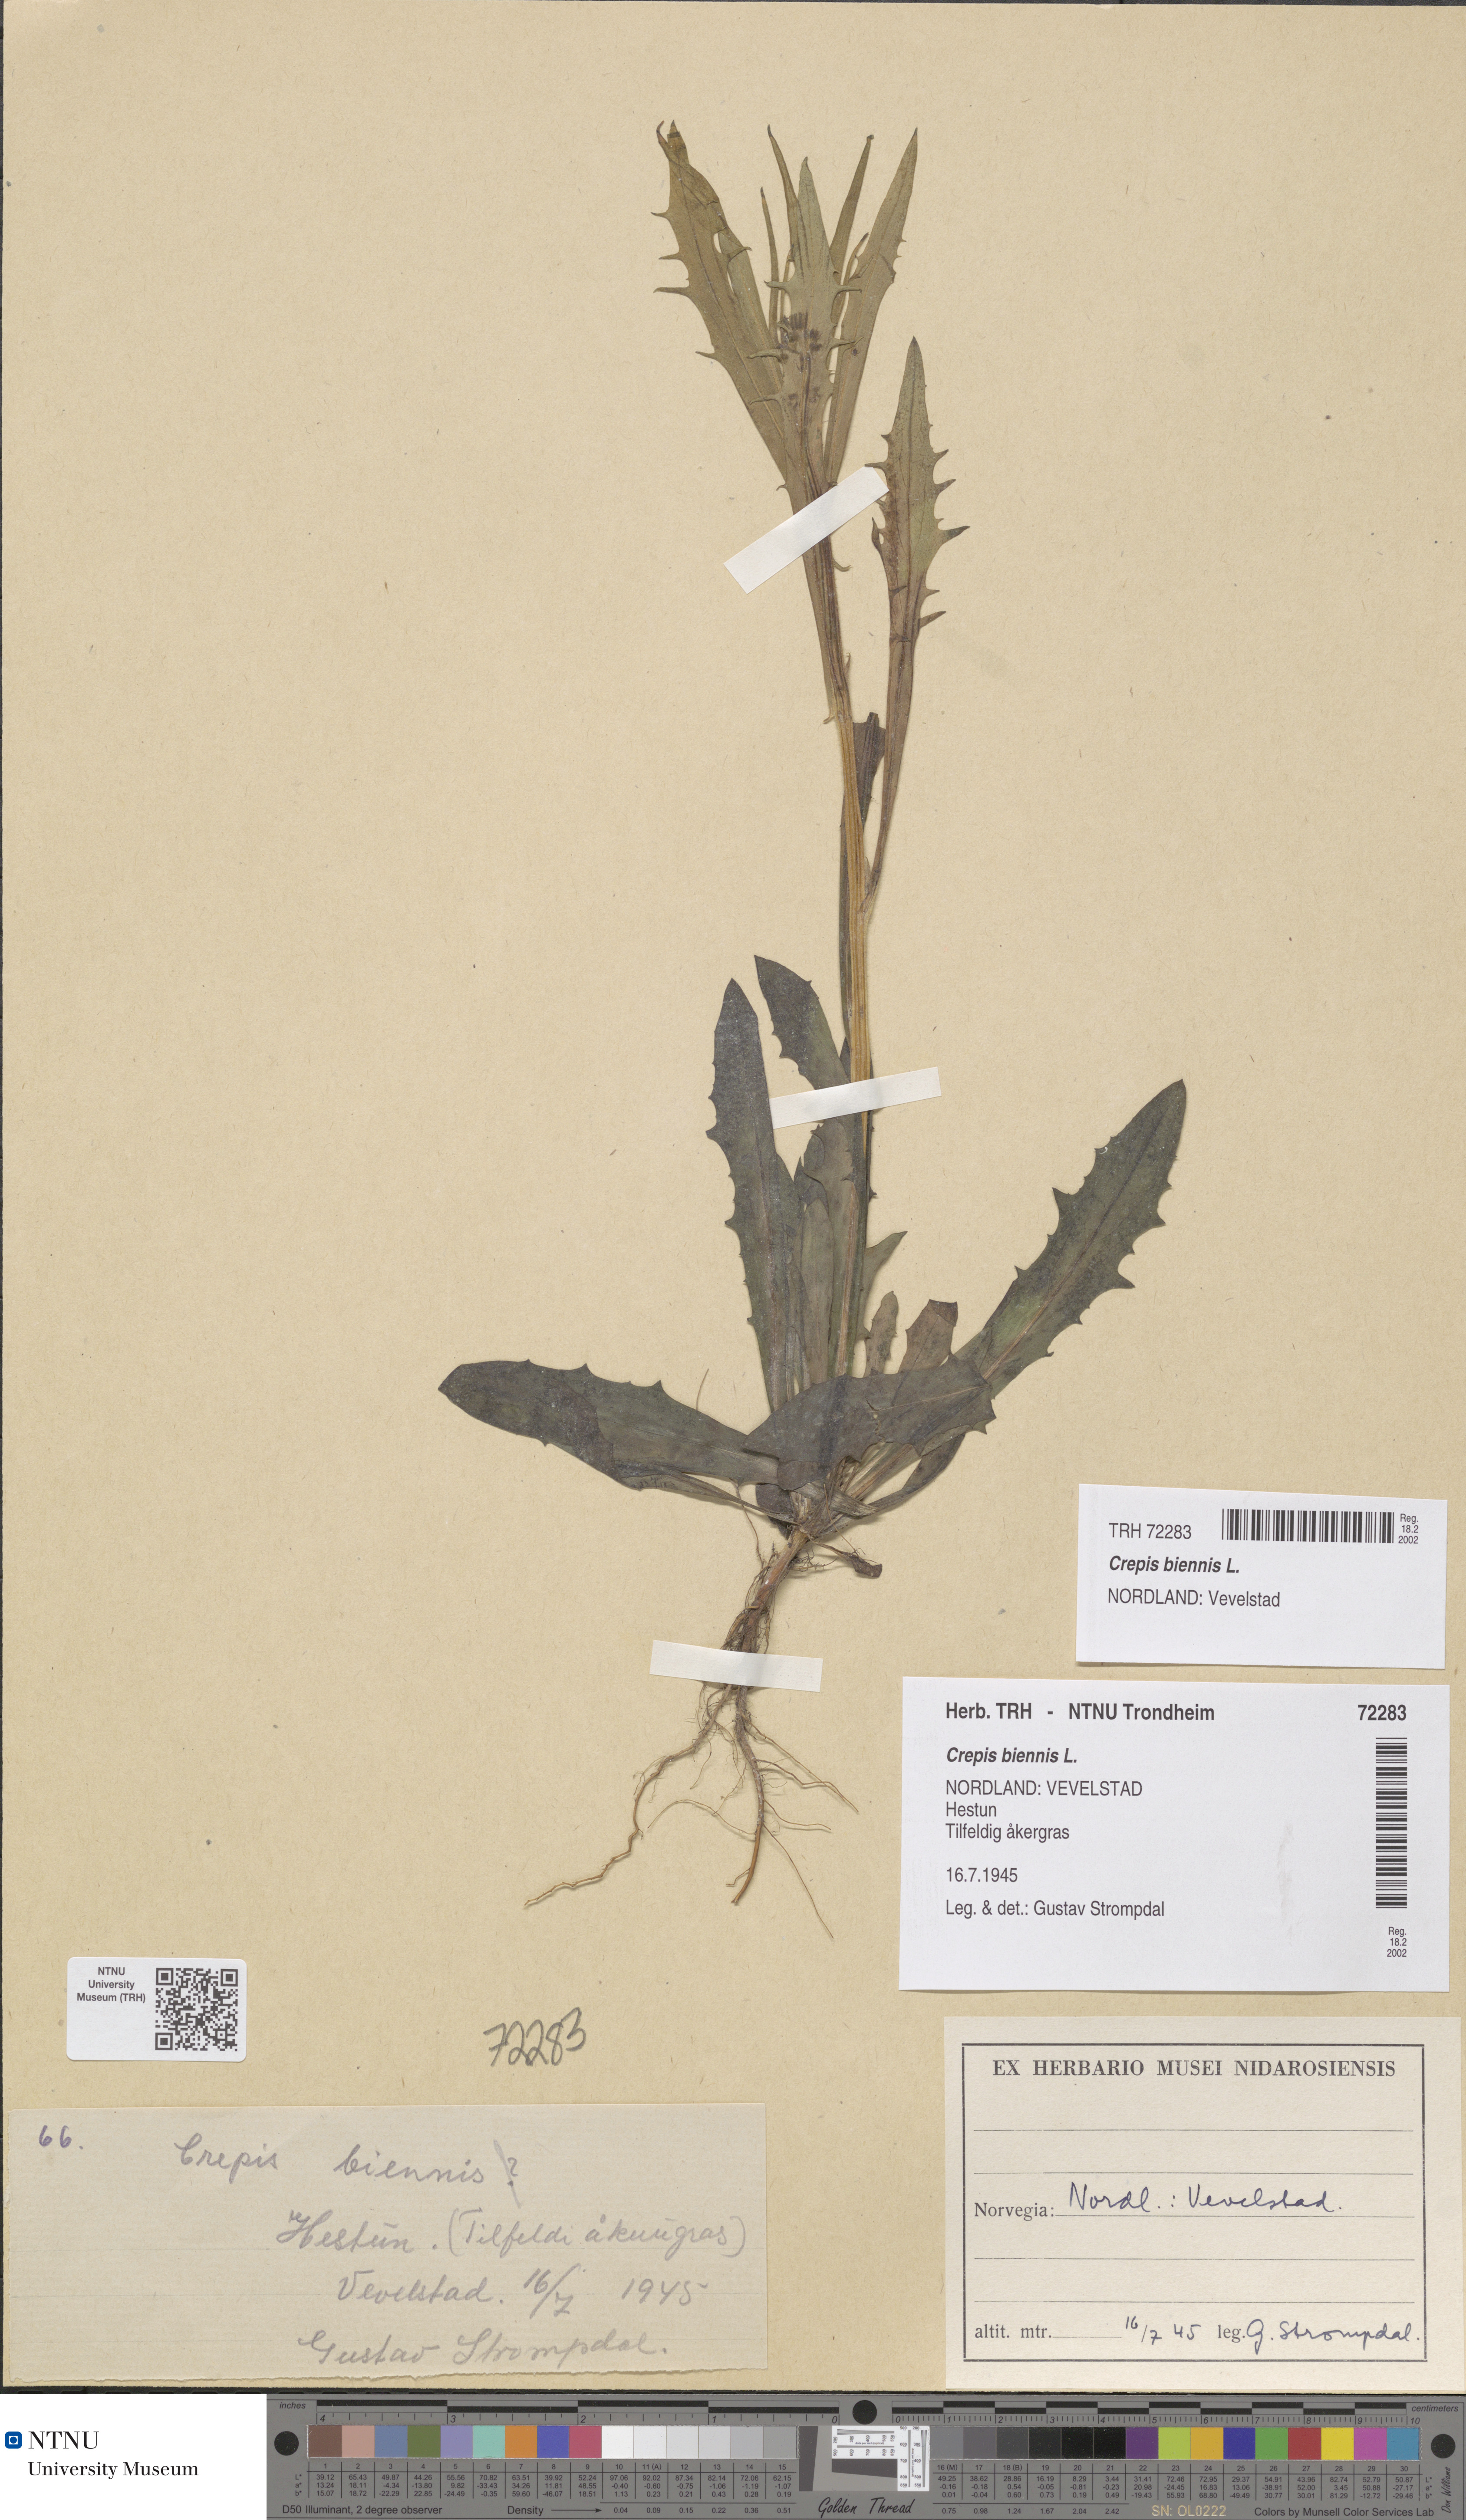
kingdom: Plantae
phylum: Tracheophyta
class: Magnoliopsida
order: Asterales
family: Asteraceae
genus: Crepis
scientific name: Crepis tectorum
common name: Narrow-leaved hawk's-beard
